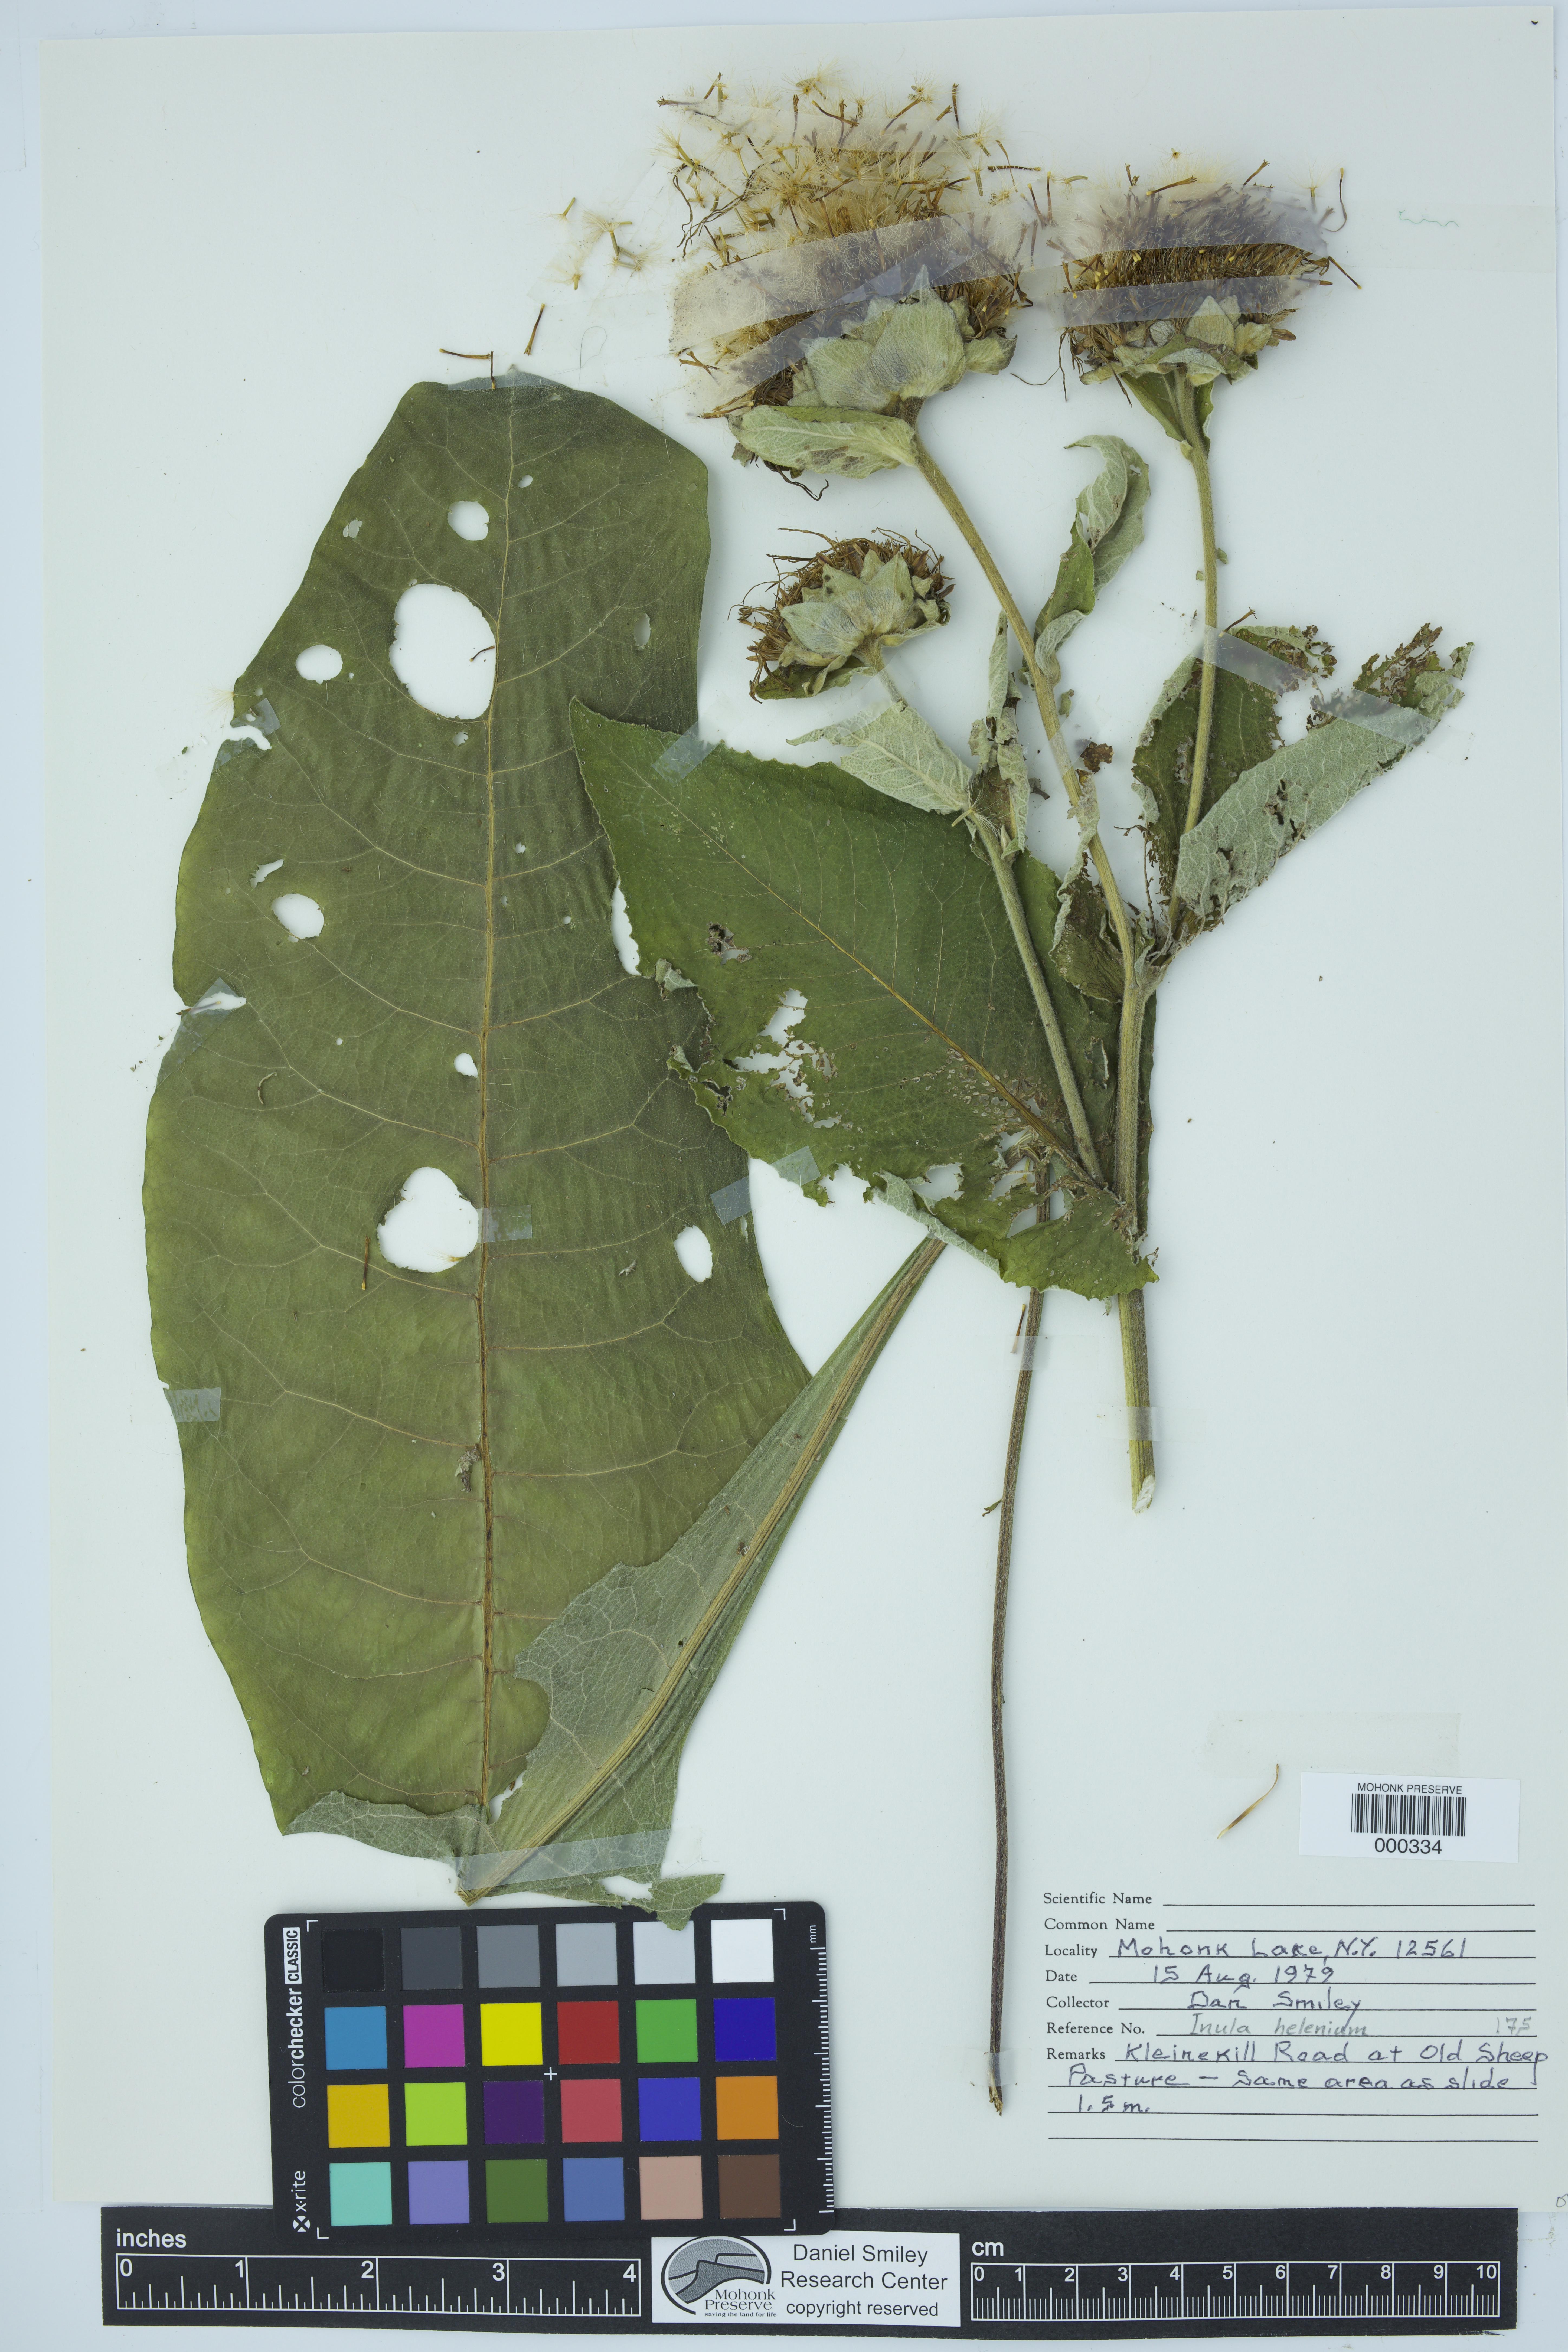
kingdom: Plantae
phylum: Tracheophyta
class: Magnoliopsida
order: Asterales
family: Asteraceae
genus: Inula
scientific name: Inula helenium
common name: Elecampane
